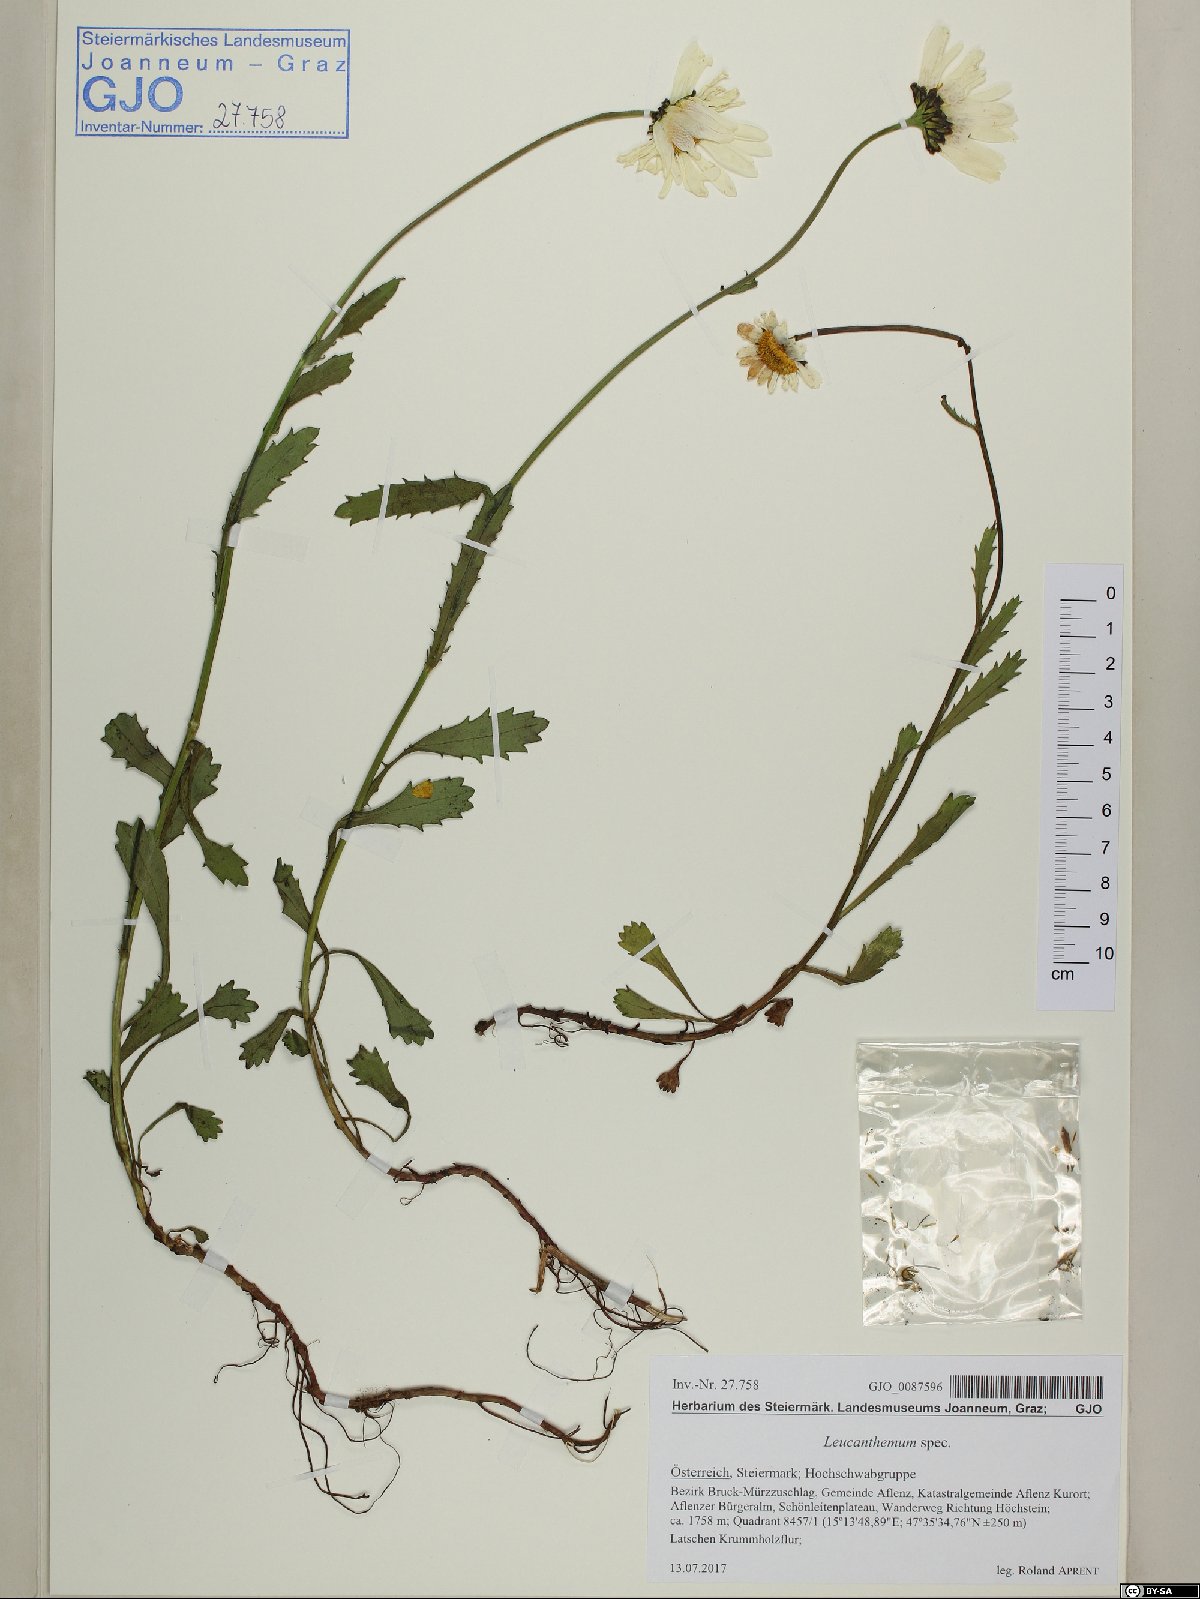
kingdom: Plantae
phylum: Tracheophyta
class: Magnoliopsida
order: Asterales
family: Asteraceae
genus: Leucanthemum
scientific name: Leucanthemum
